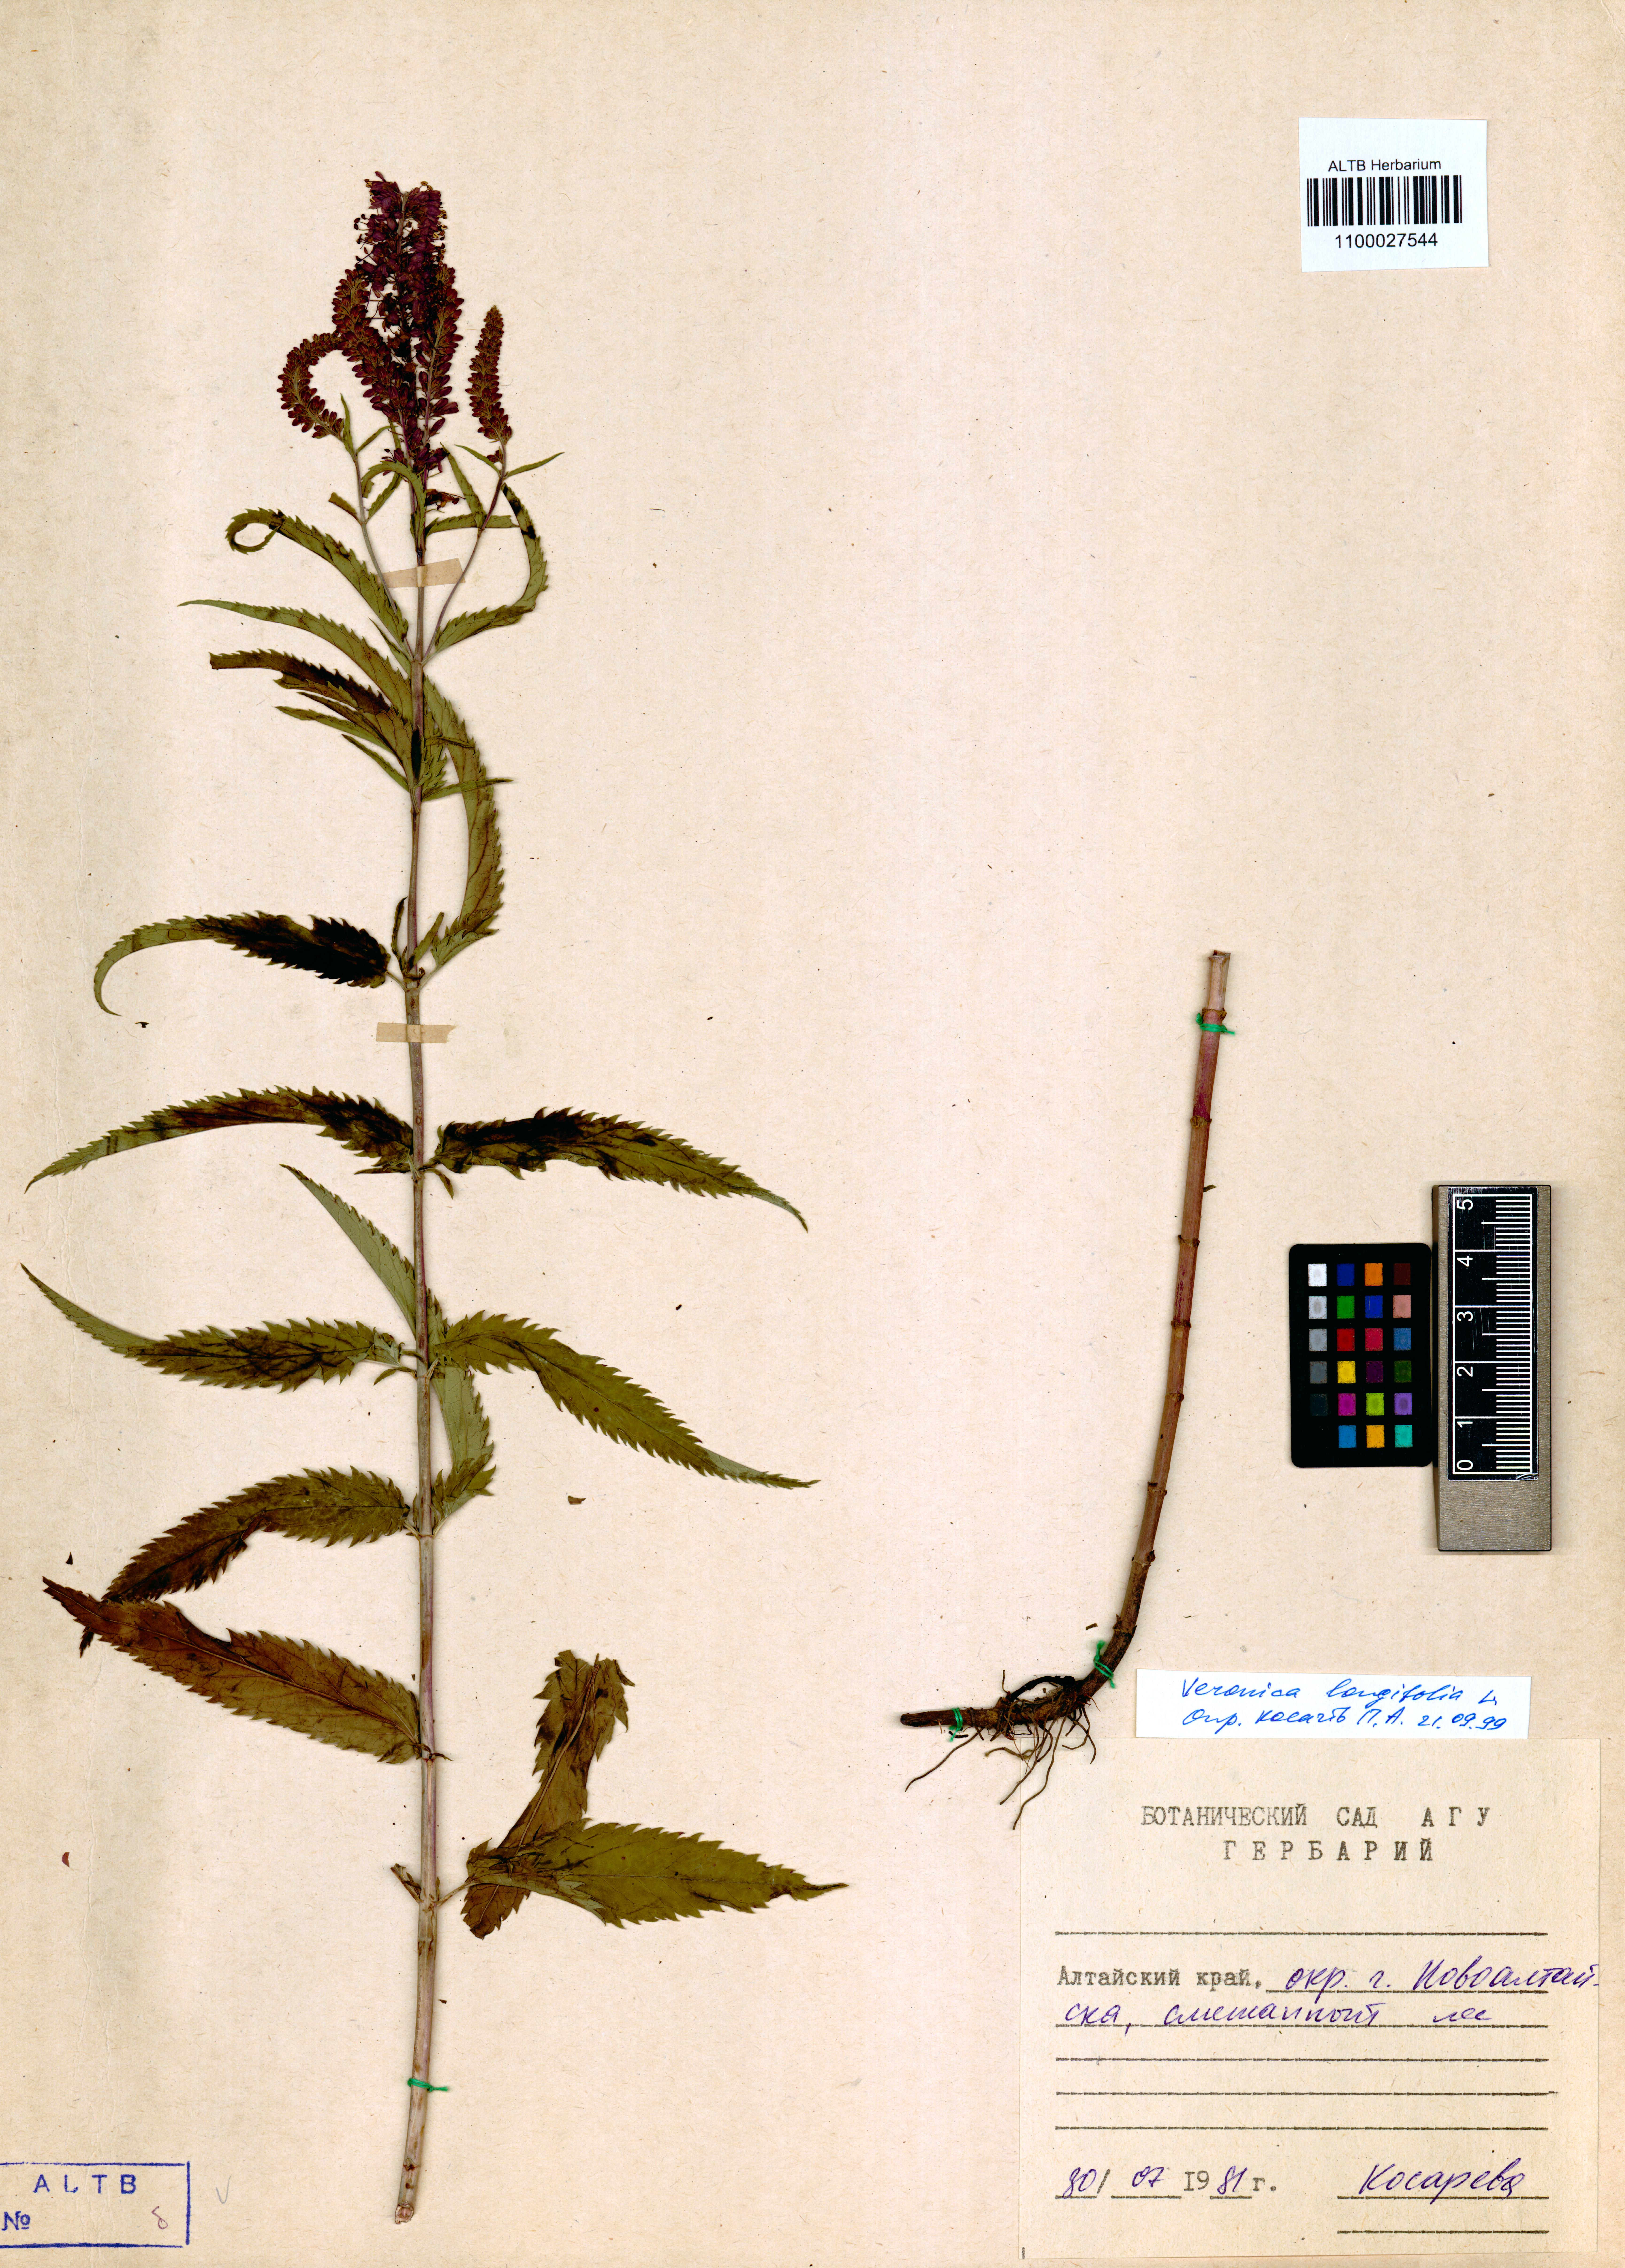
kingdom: Plantae
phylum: Tracheophyta
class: Magnoliopsida
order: Lamiales
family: Plantaginaceae
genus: Veronica
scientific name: Veronica longifolia
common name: Garden speedwell
